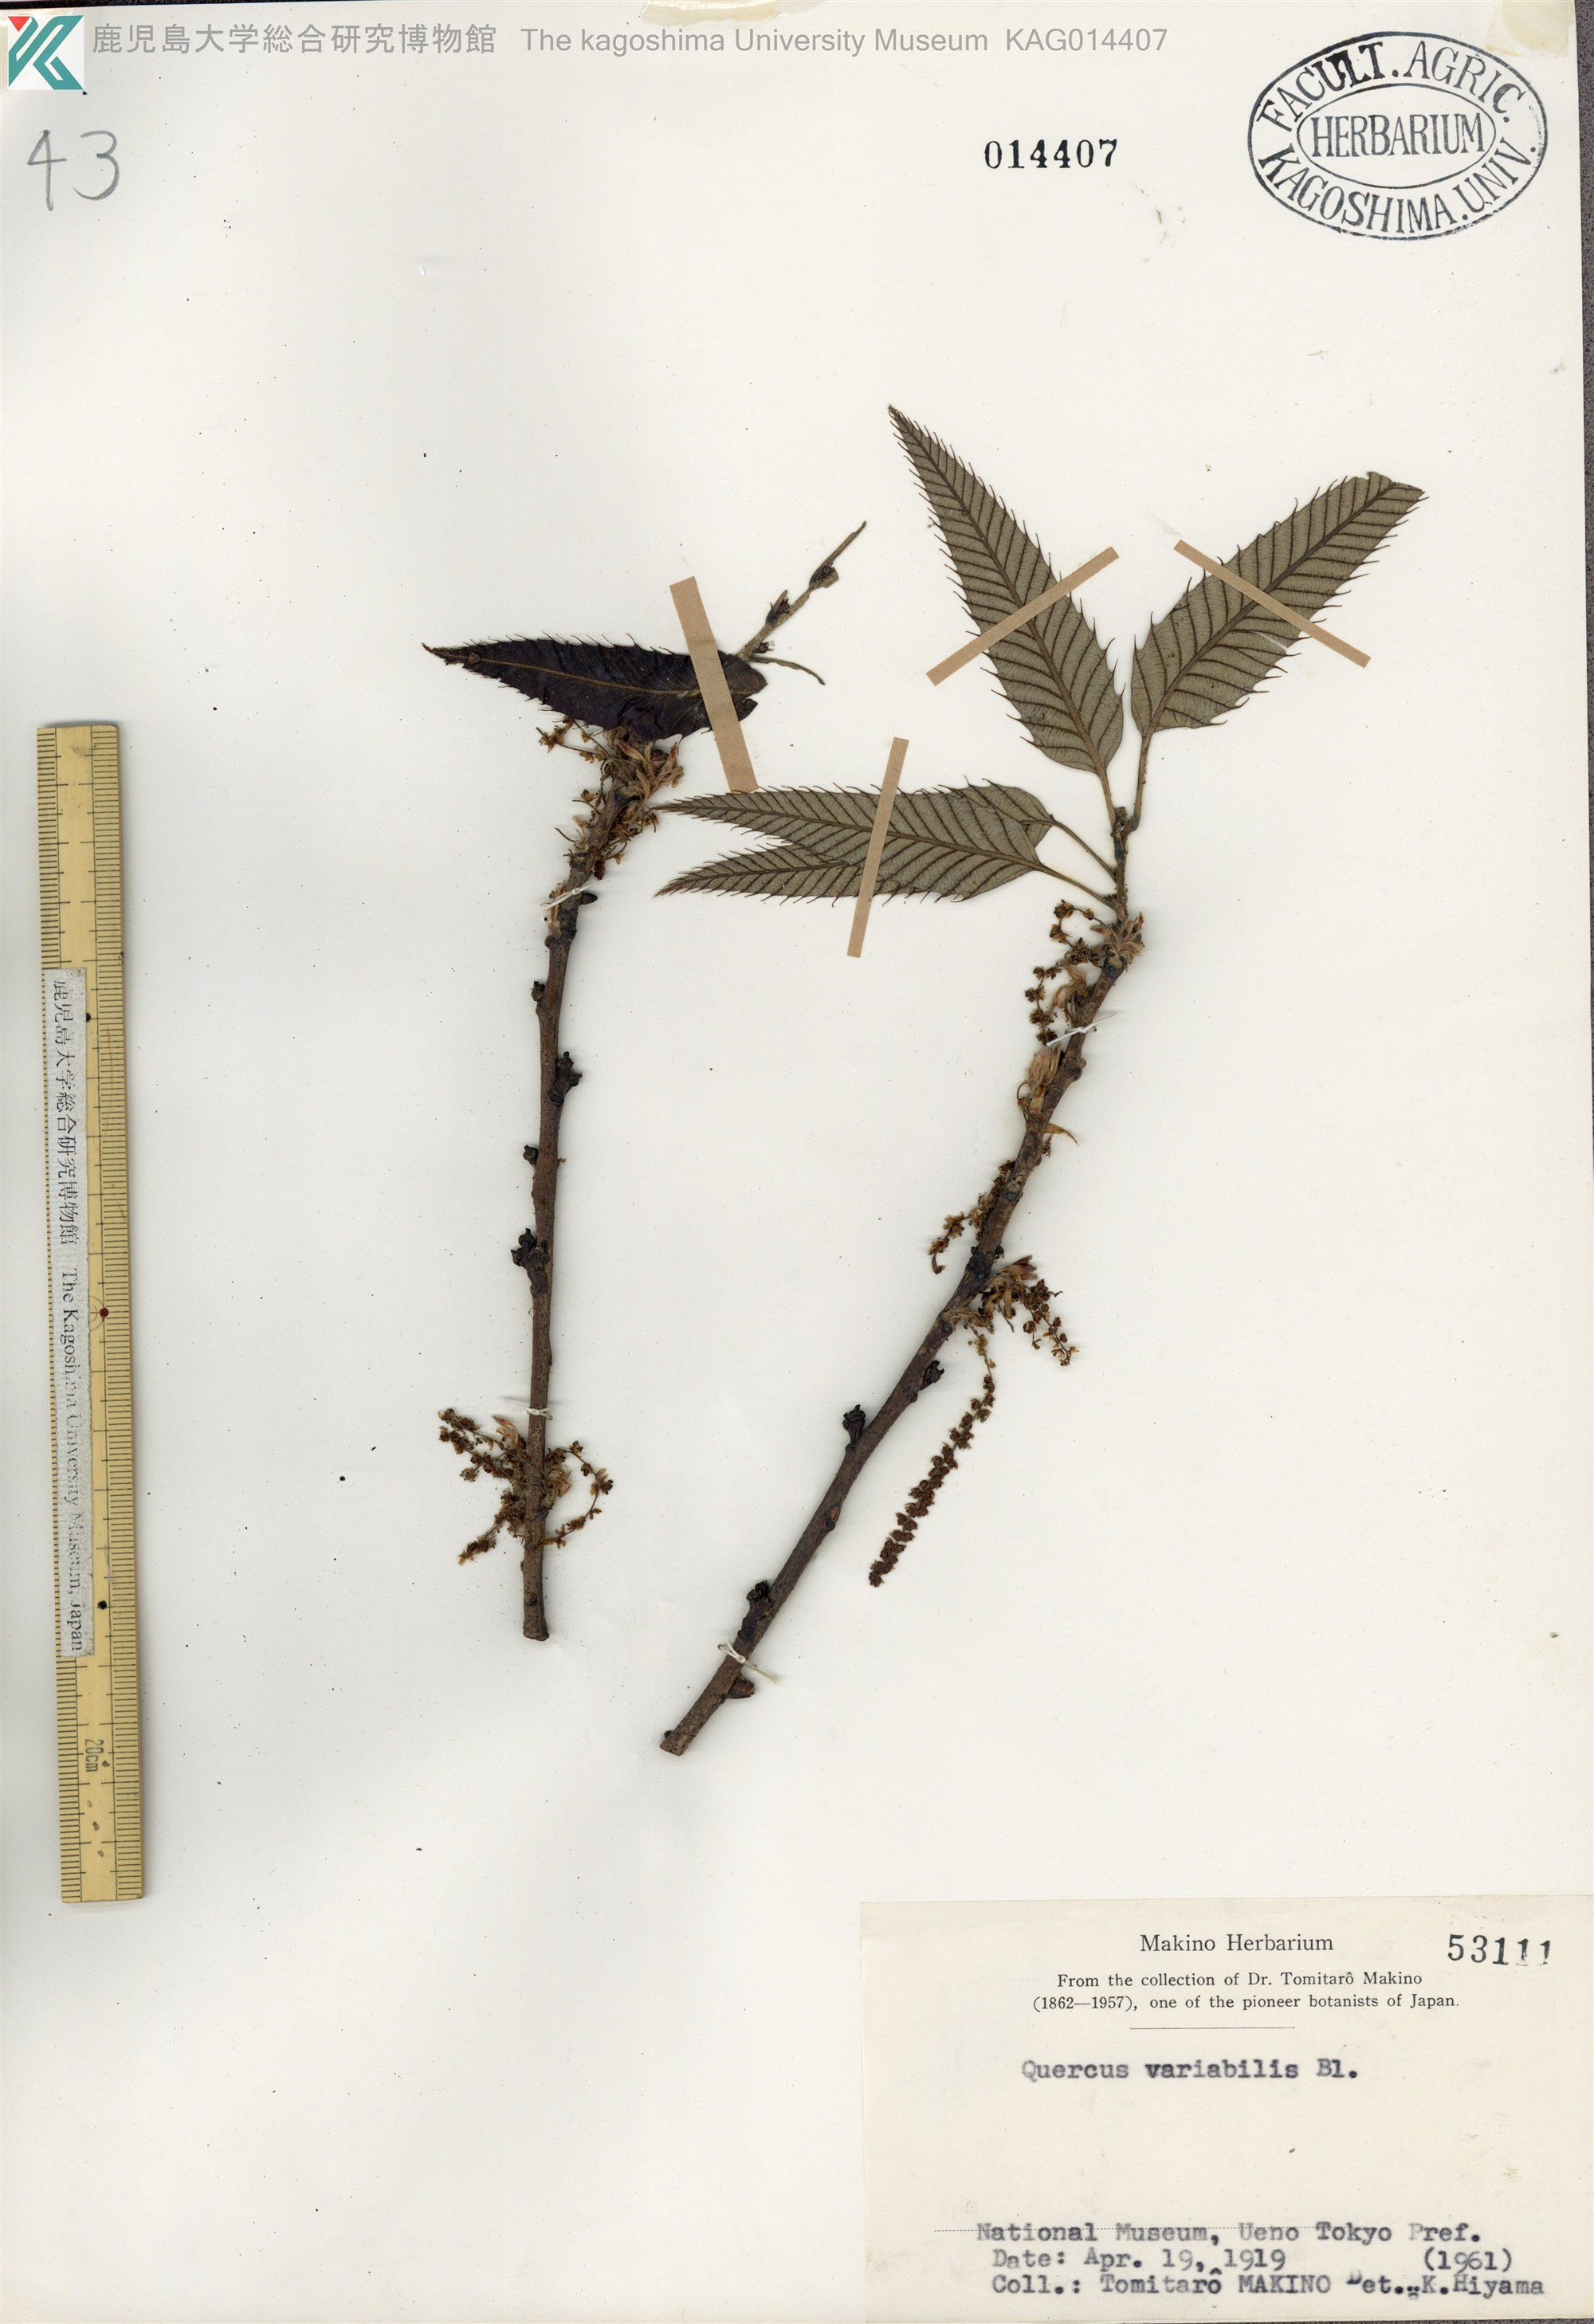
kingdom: Plantae
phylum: Tracheophyta
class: Magnoliopsida
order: Fagales
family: Fagaceae
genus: Quercus
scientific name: Quercus variabilis
